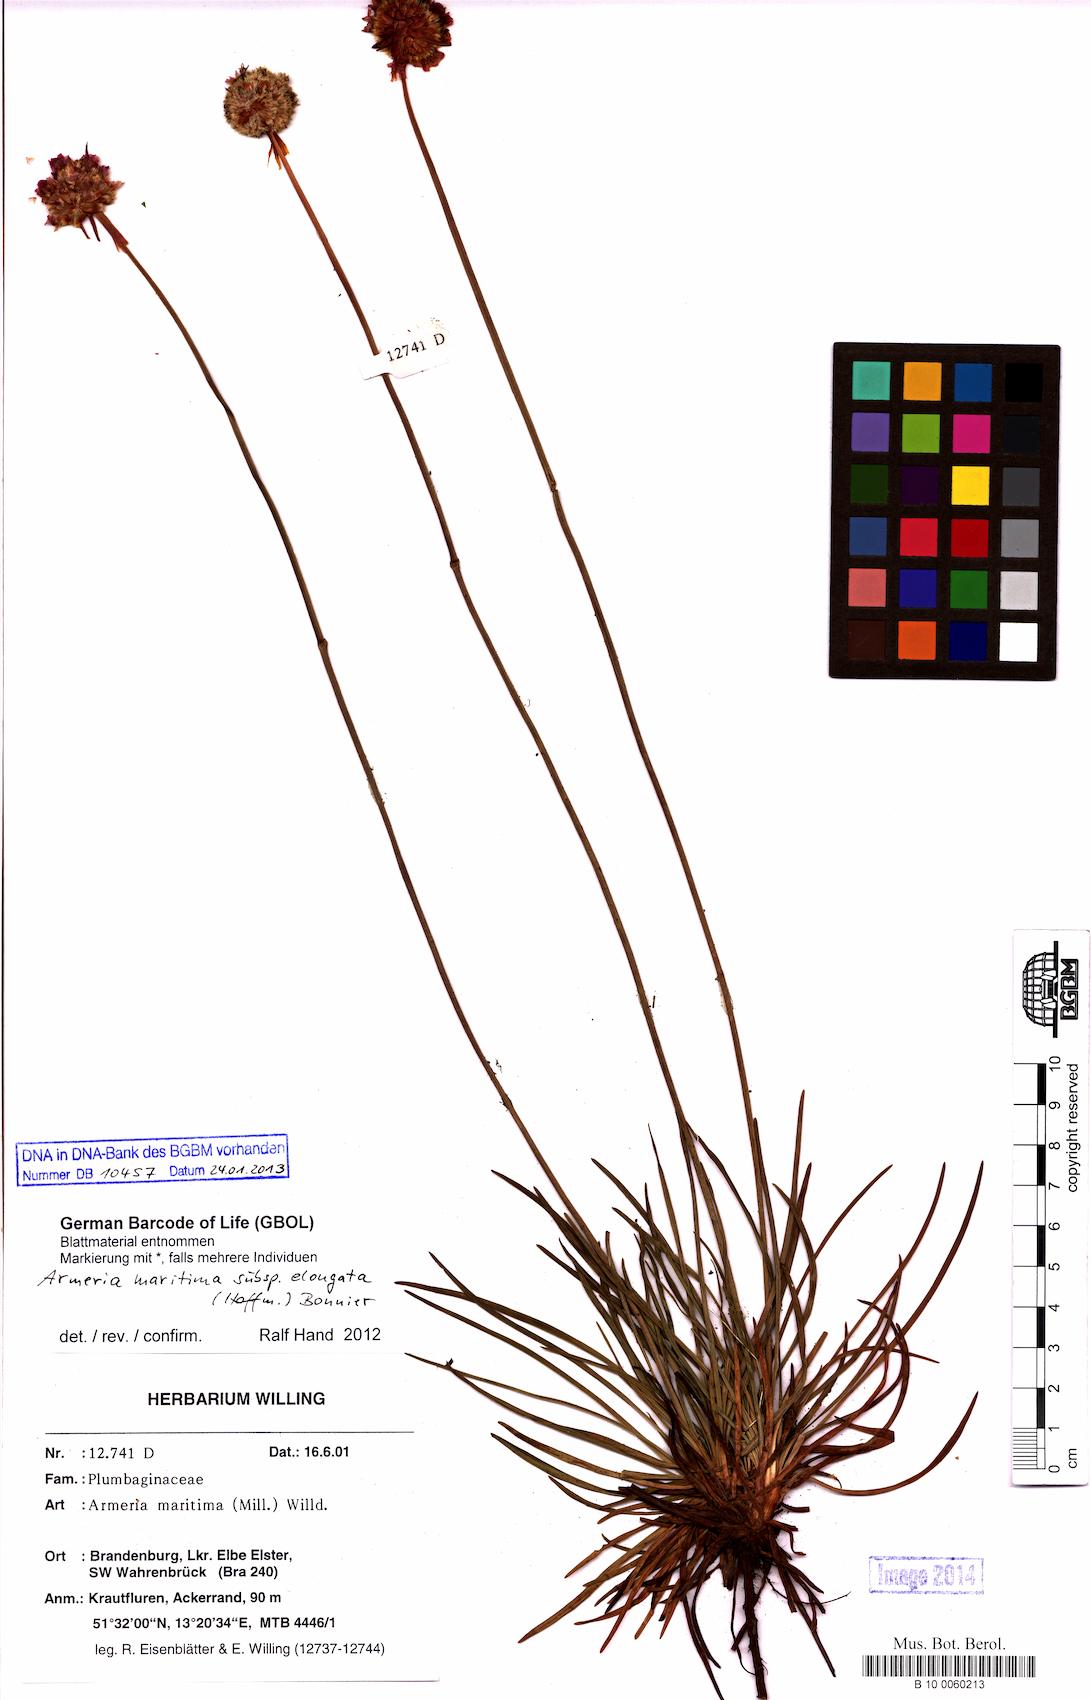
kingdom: Plantae
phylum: Tracheophyta
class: Magnoliopsida
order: Caryophyllales
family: Plumbaginaceae
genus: Armeria
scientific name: Armeria maritima
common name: Thrift
